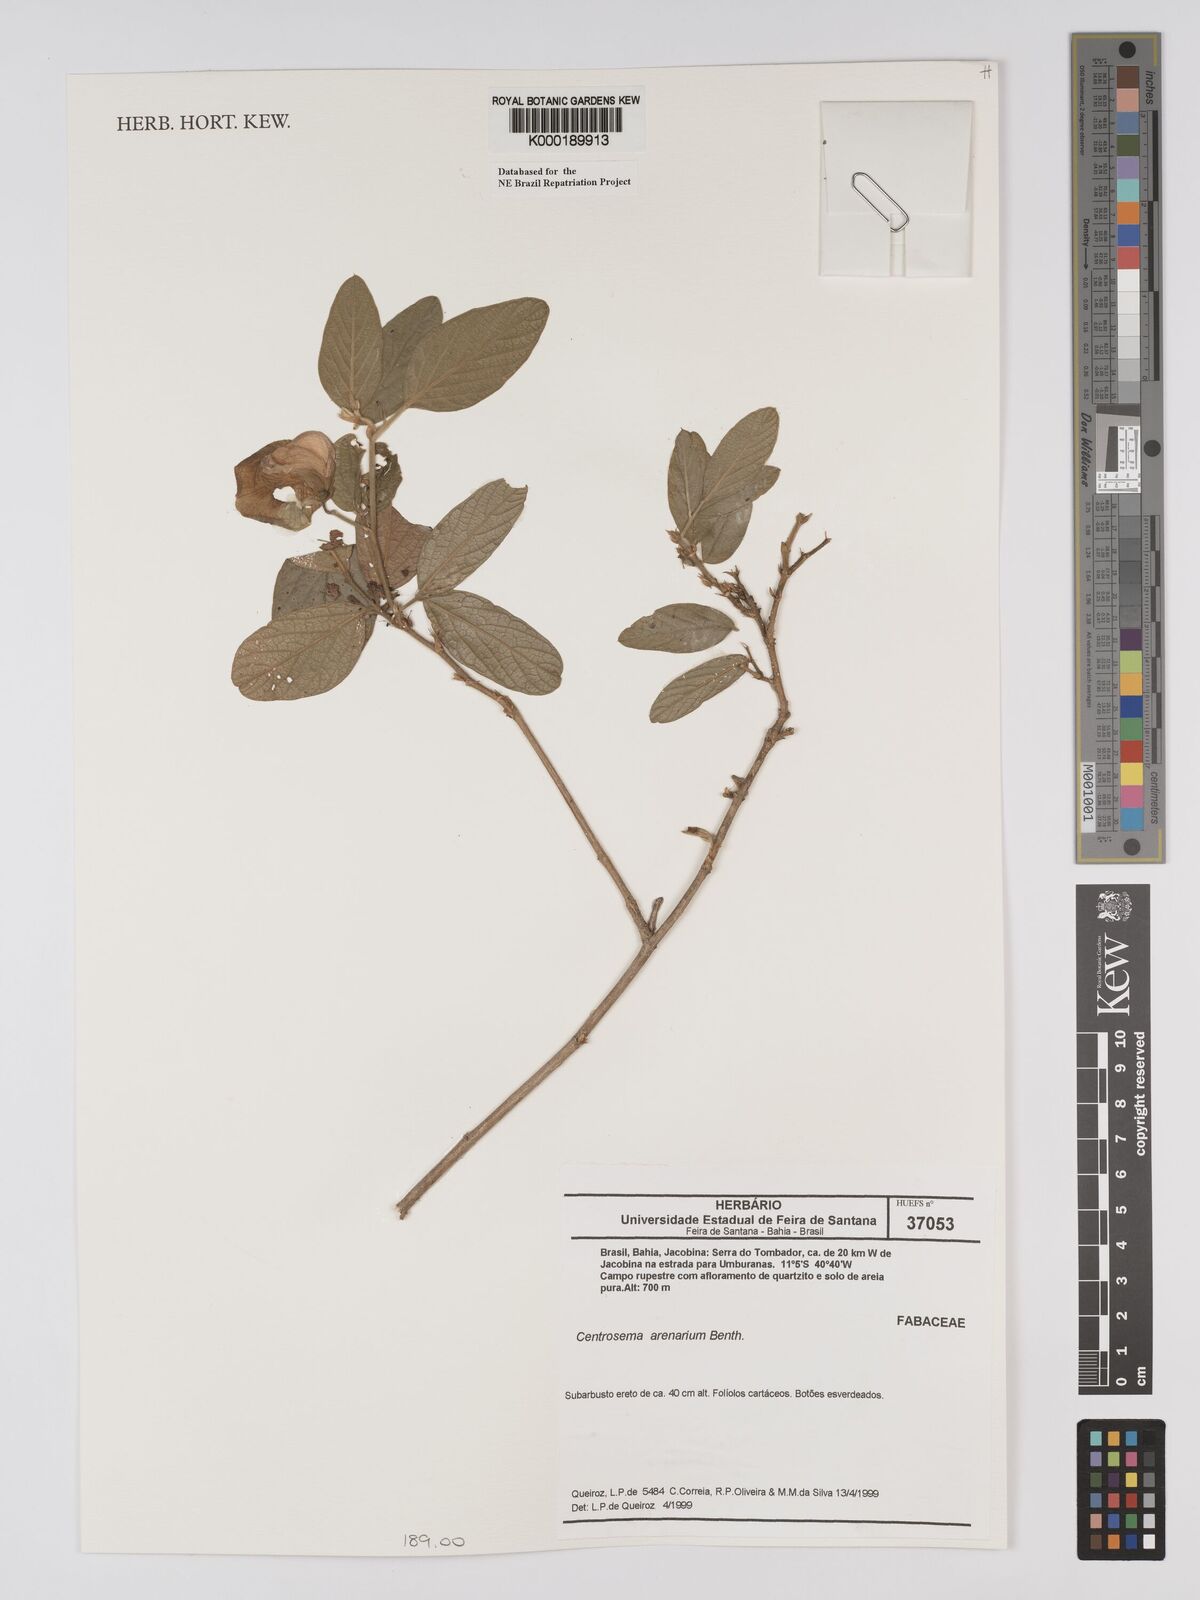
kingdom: Plantae
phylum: Tracheophyta
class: Magnoliopsida
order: Fabales
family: Fabaceae
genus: Centrosema
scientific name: Centrosema arenarium
